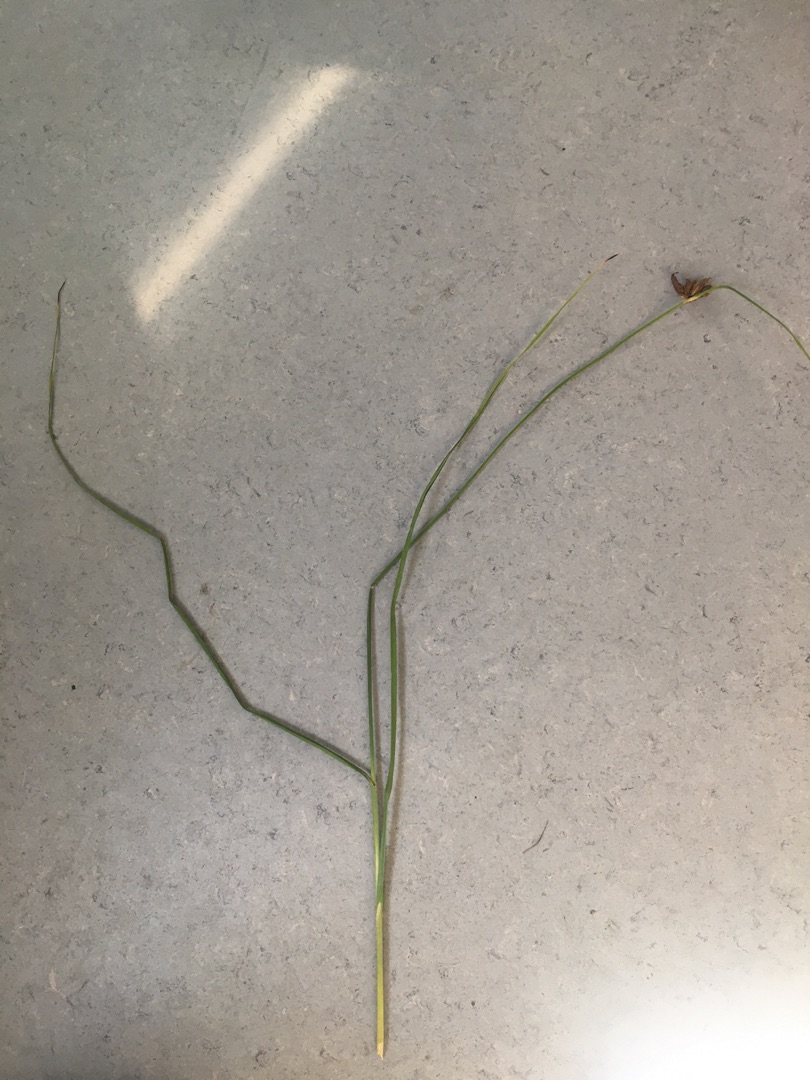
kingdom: Plantae
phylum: Tracheophyta
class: Liliopsida
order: Poales
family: Cyperaceae
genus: Bolboschoenus
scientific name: Bolboschoenus maritimus
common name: Strand-kogleaks
